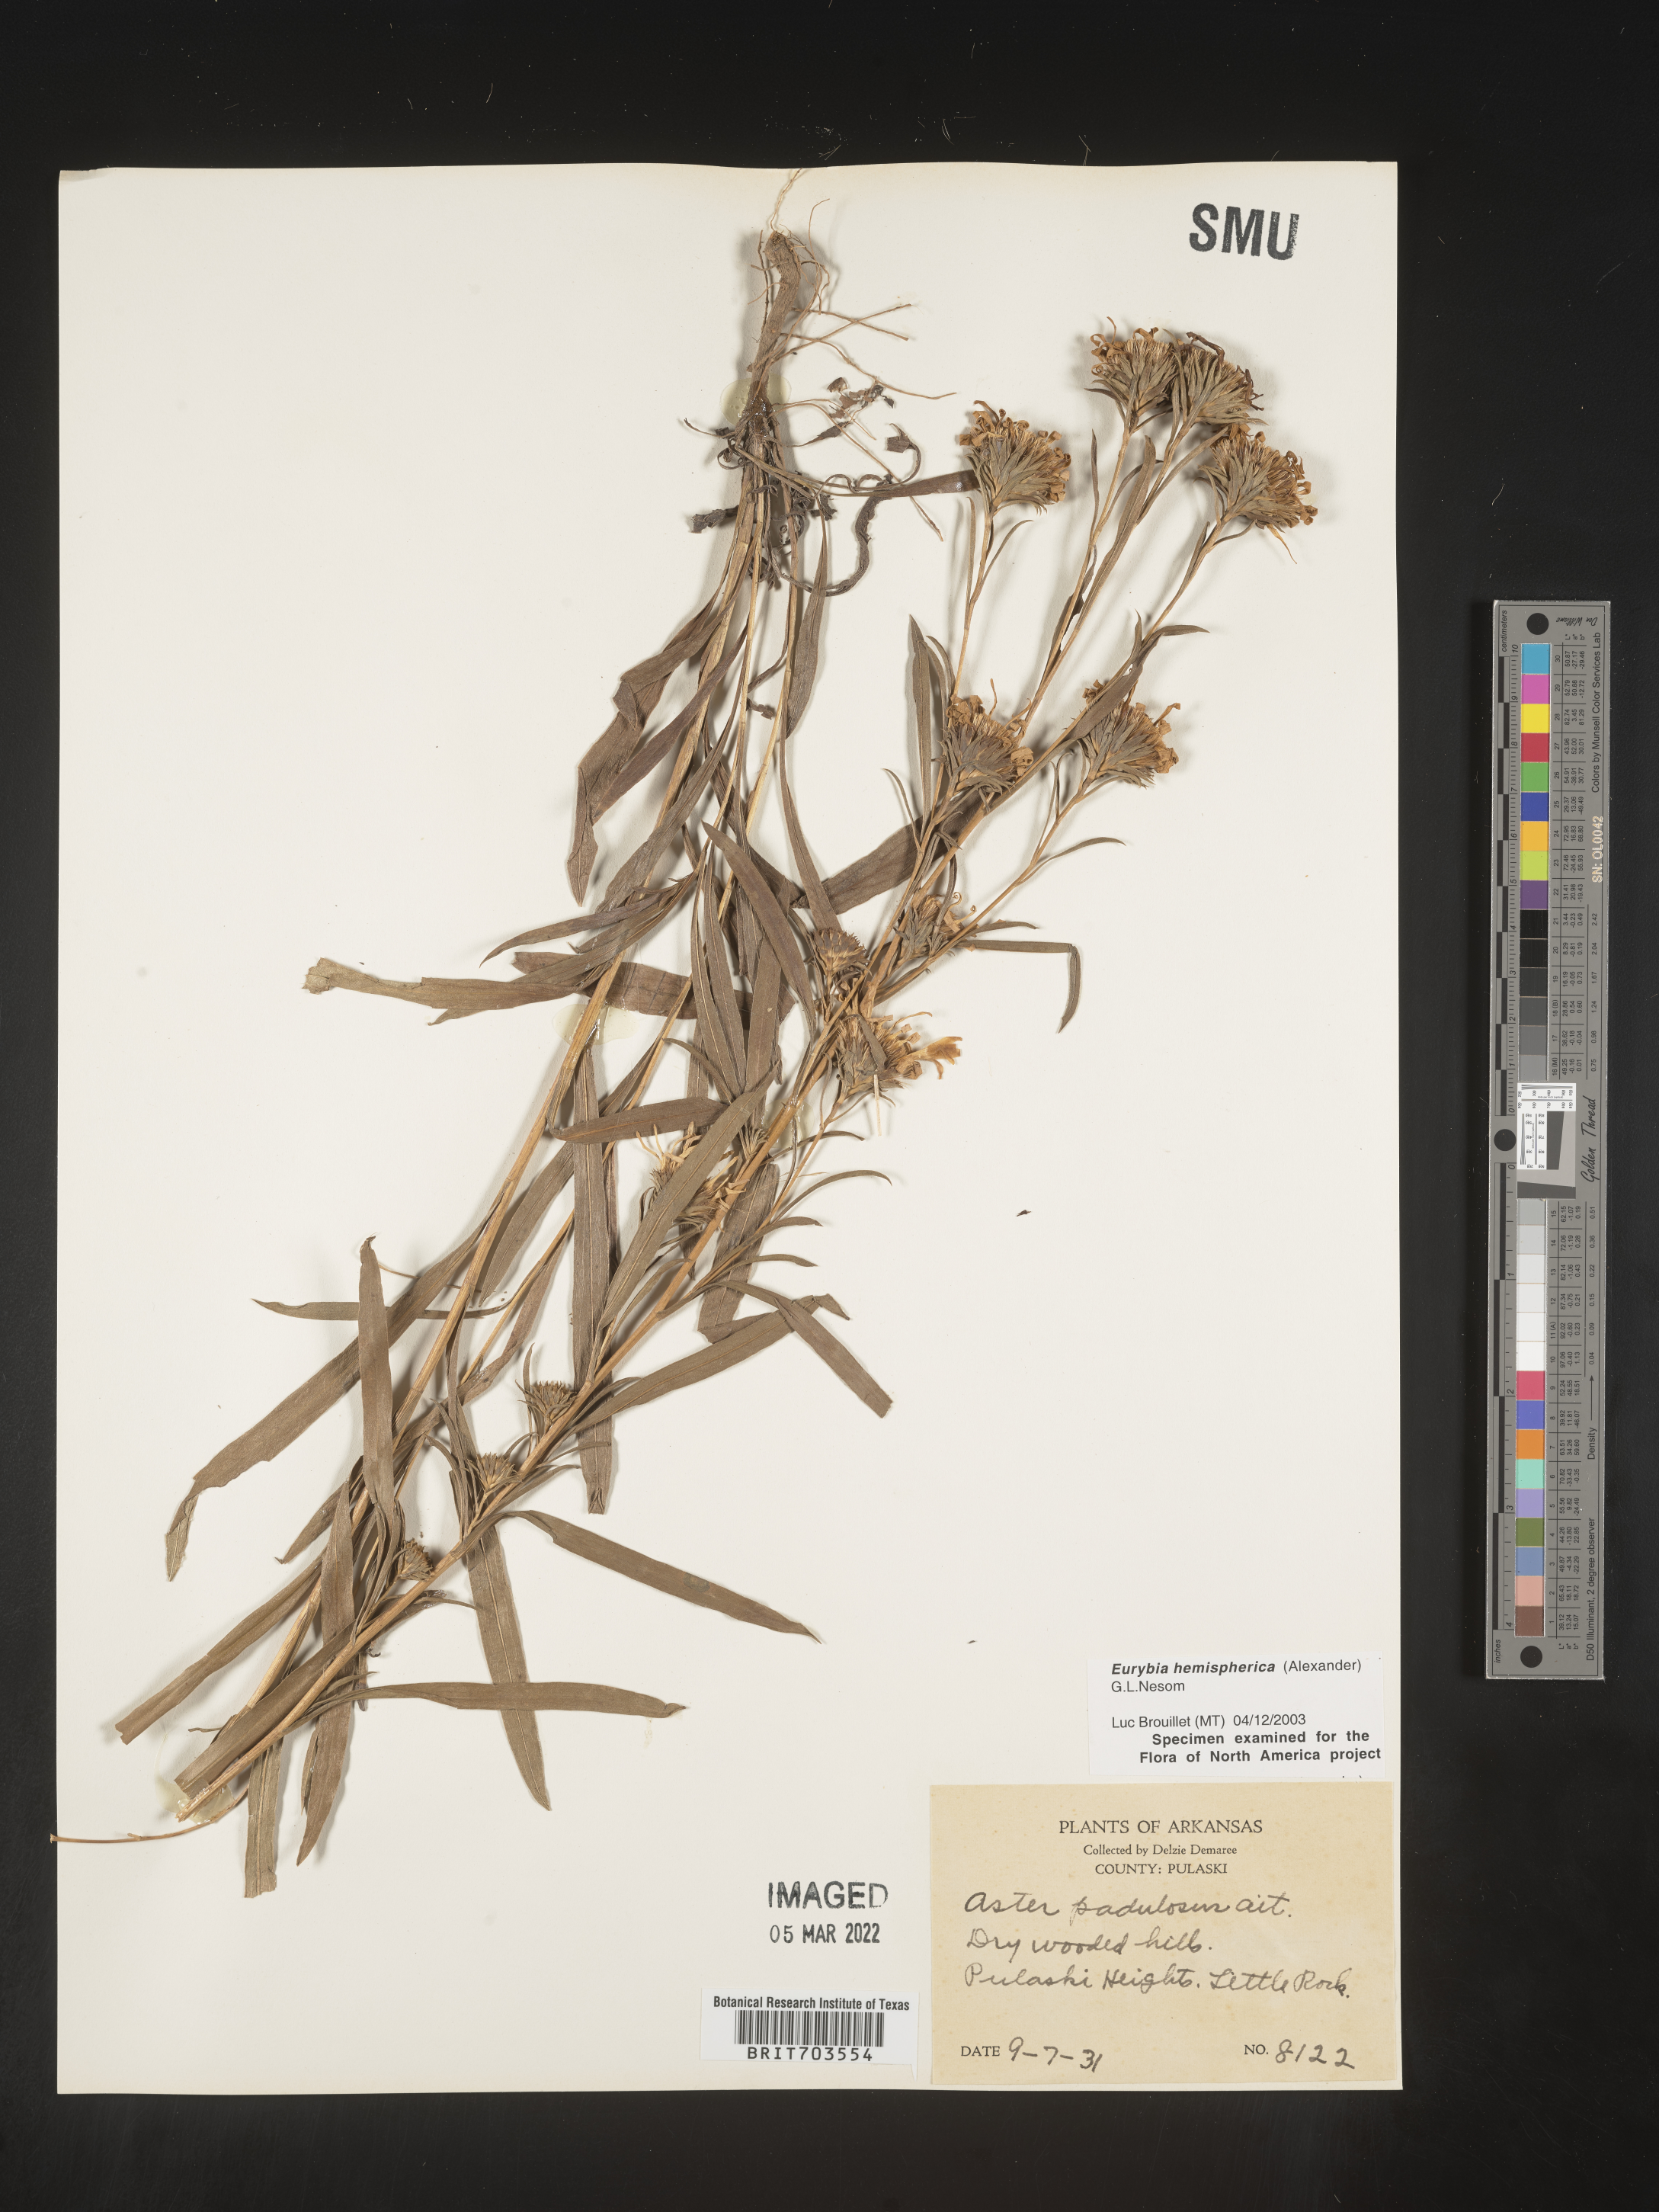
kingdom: Plantae
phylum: Tracheophyta
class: Magnoliopsida
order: Asterales
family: Asteraceae
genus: Eurybia
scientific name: Eurybia hemispherica
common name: Showy aster
